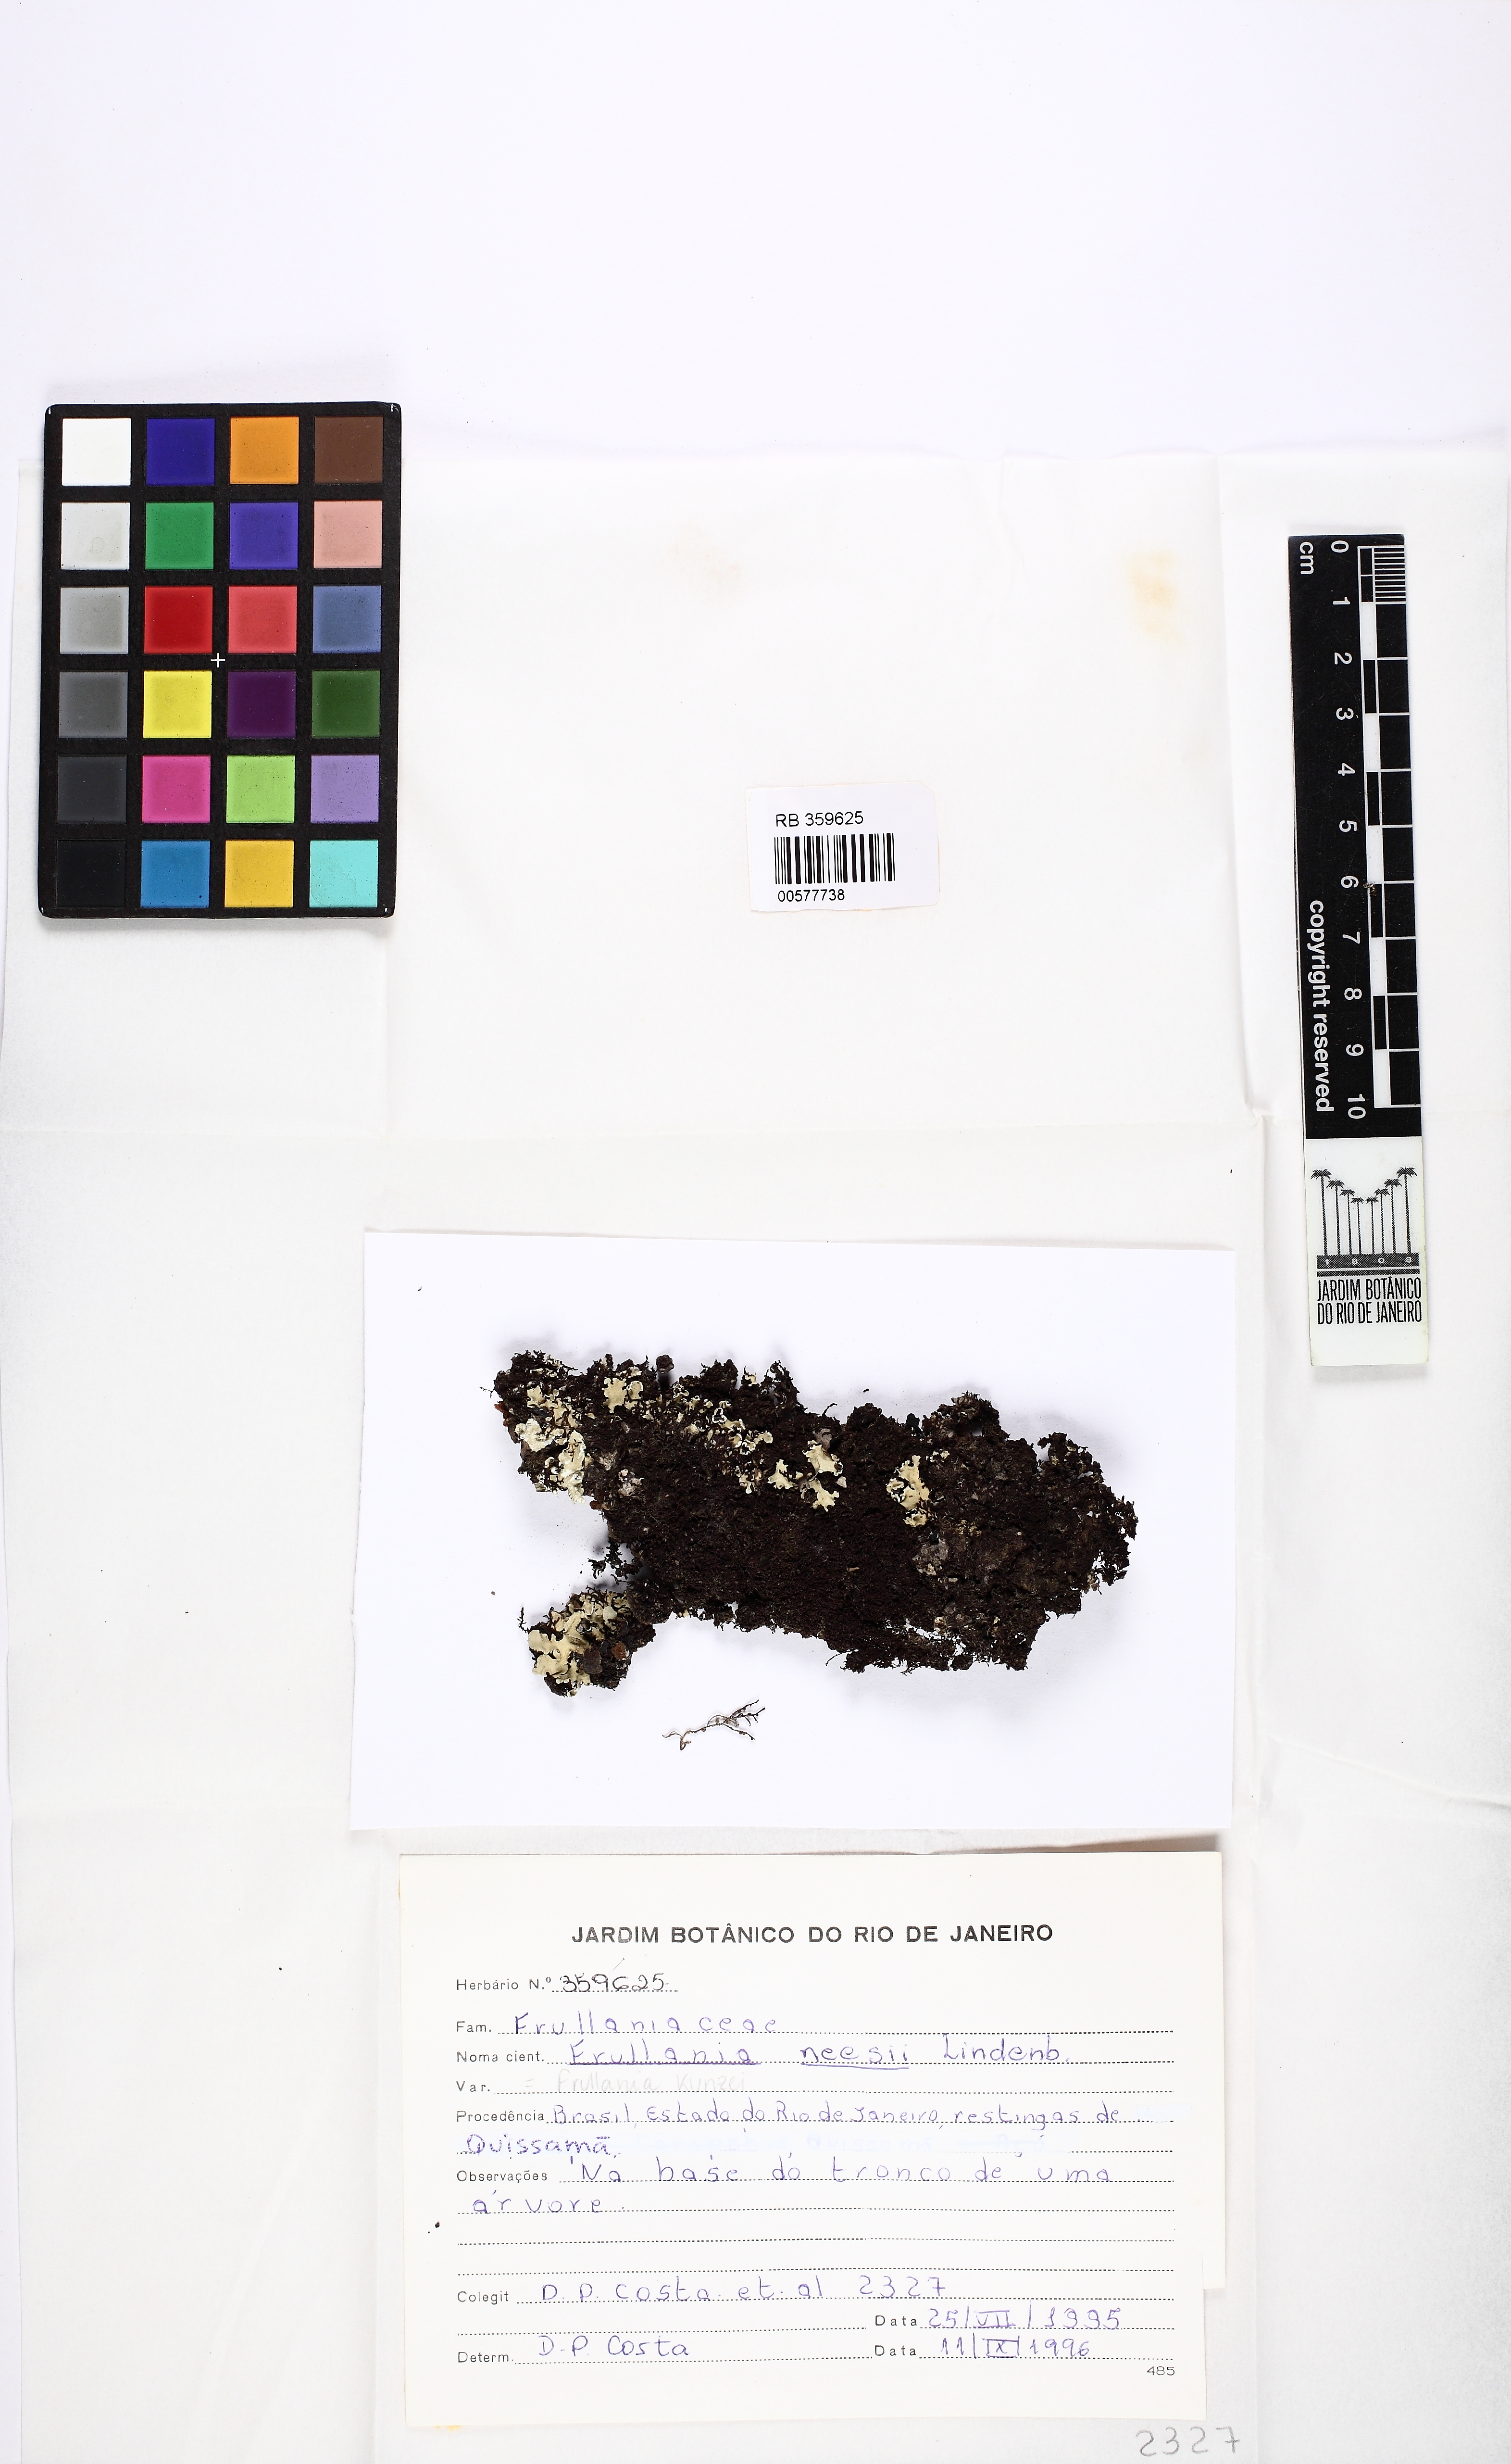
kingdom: Plantae
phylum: Marchantiophyta
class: Jungermanniopsida
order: Porellales
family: Frullaniaceae
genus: Frullania
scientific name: Frullania kunzei
